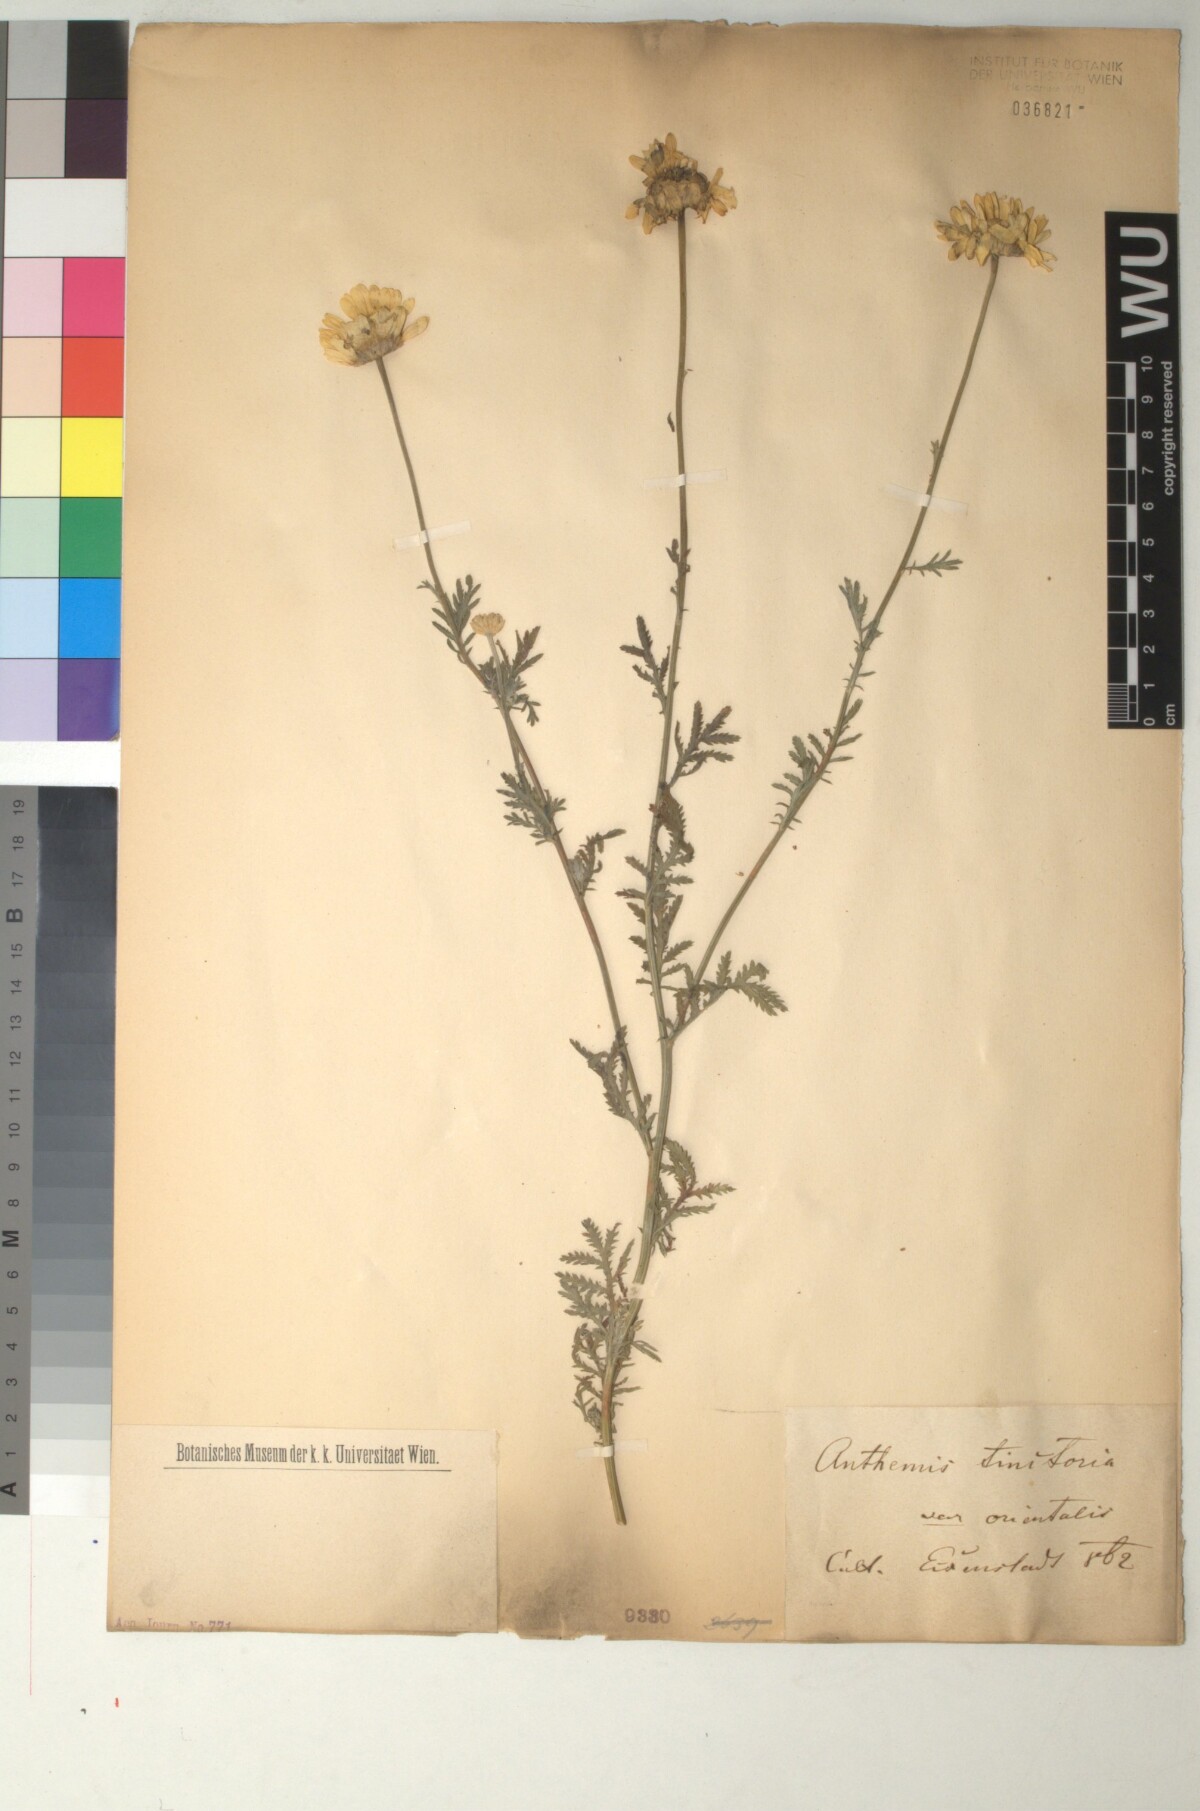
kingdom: Plantae
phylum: Tracheophyta
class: Magnoliopsida
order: Asterales
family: Asteraceae
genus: Cota
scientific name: Cota tinctoria
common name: Golden chamomile
